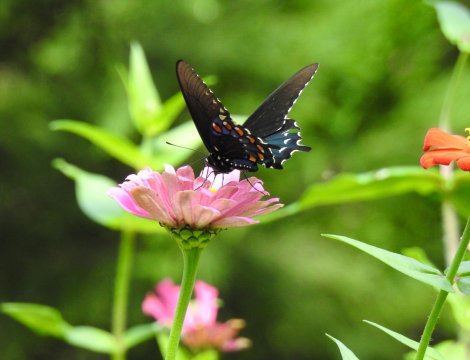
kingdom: Animalia
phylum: Arthropoda
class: Insecta
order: Lepidoptera
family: Papilionidae
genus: Battus
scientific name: Battus philenor
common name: Pipevine Swallowtail
